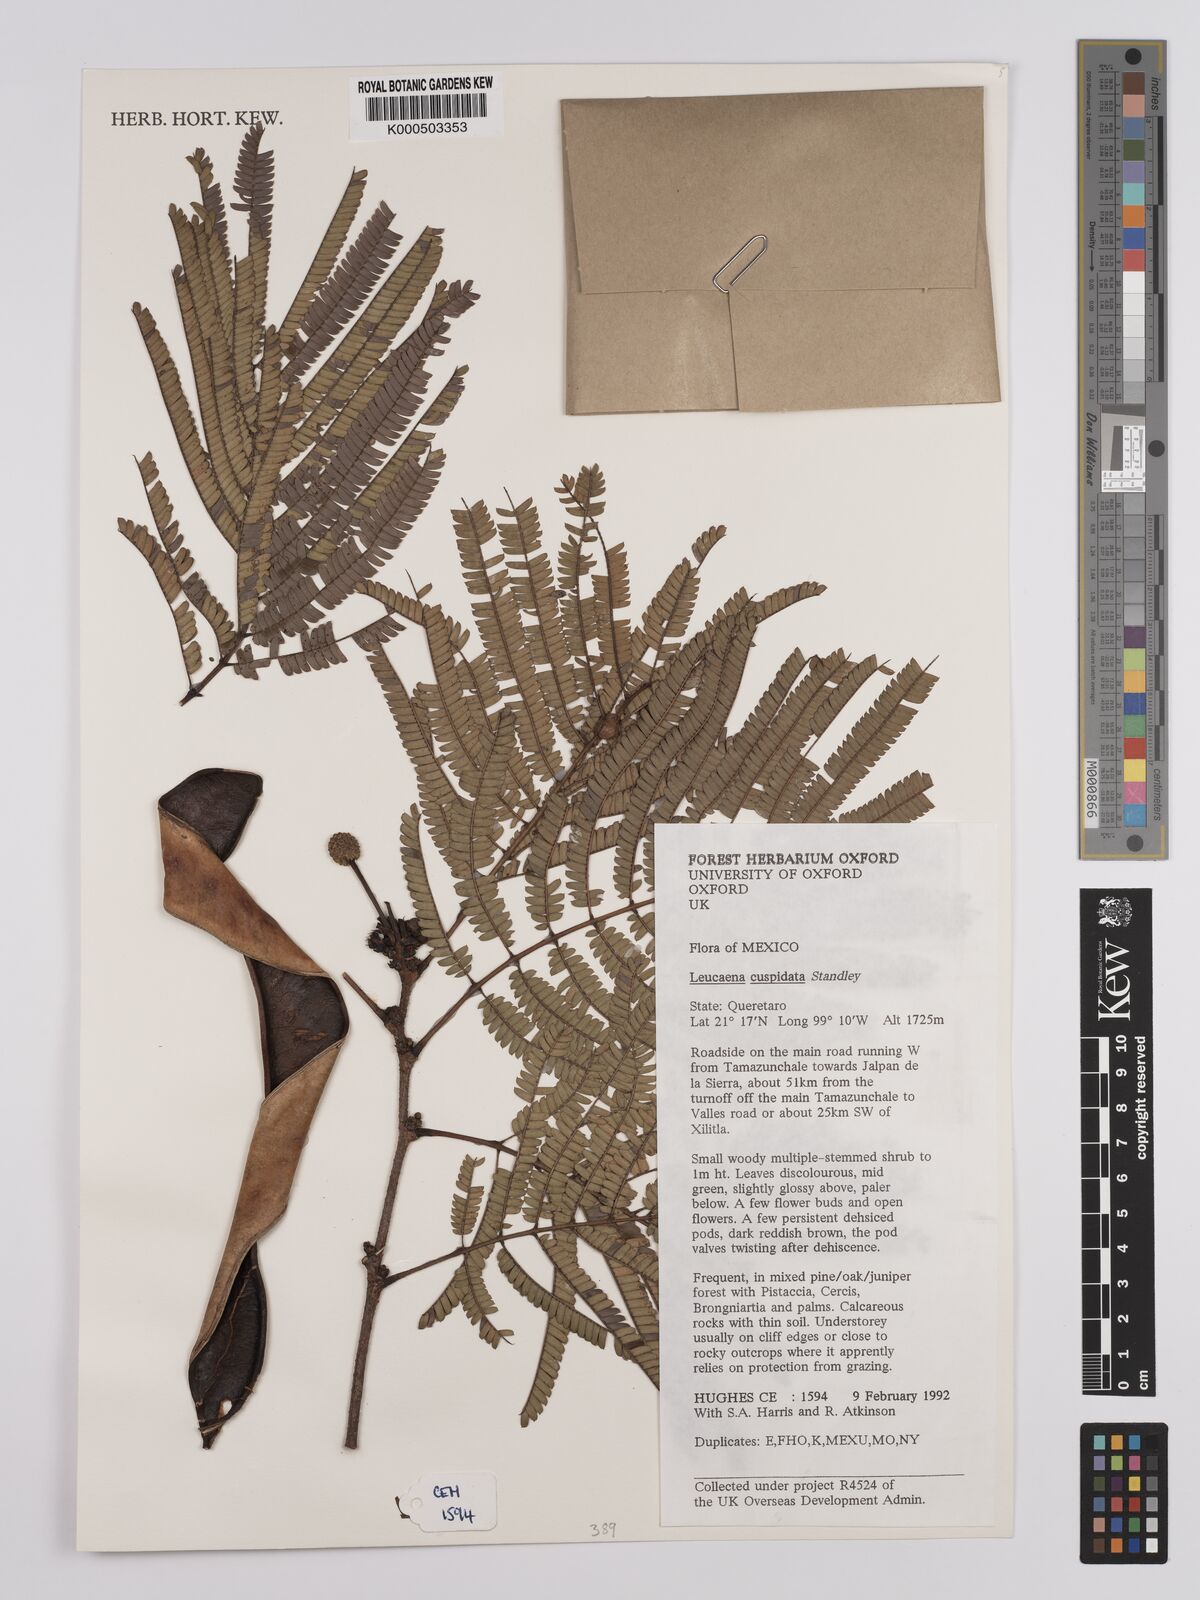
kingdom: Plantae
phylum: Tracheophyta
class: Magnoliopsida
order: Fabales
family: Fabaceae
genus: Leucaena
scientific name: Leucaena cuspidata
